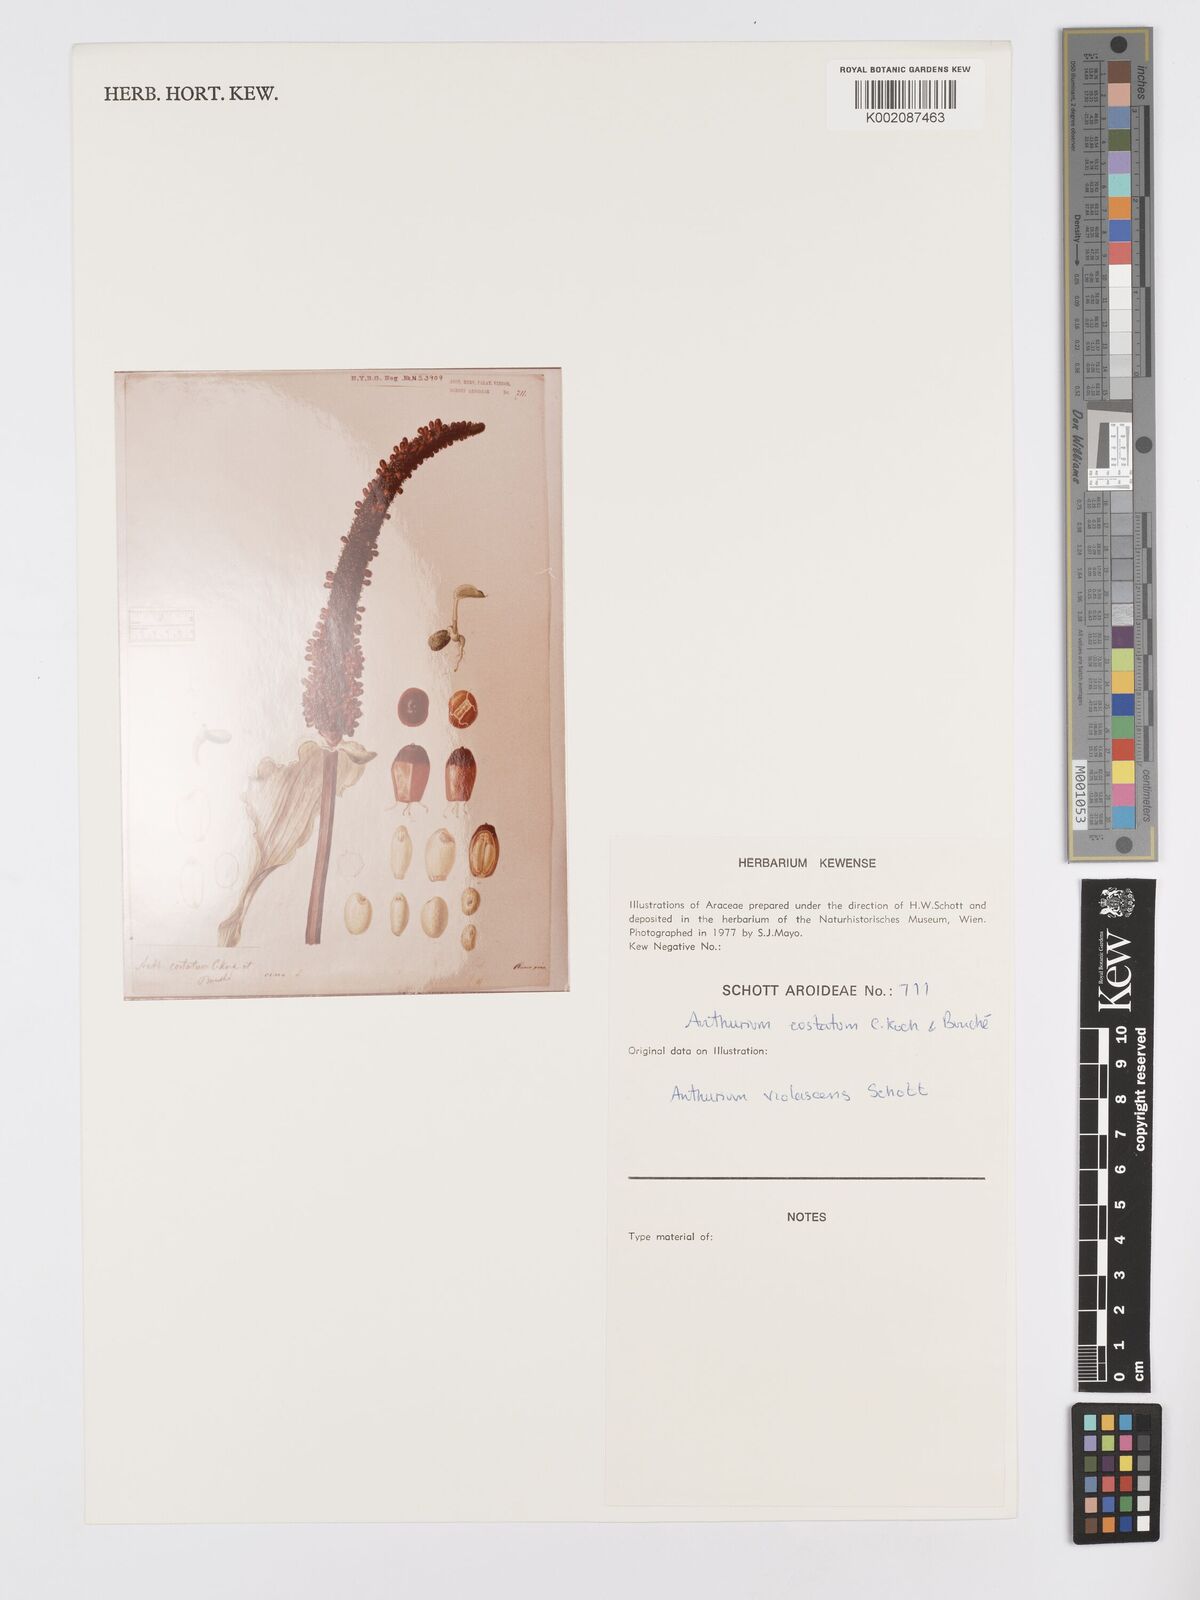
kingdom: Plantae
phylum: Tracheophyta
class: Liliopsida
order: Alismatales
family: Araceae
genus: Anthurium
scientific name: Anthurium macrophyllum
